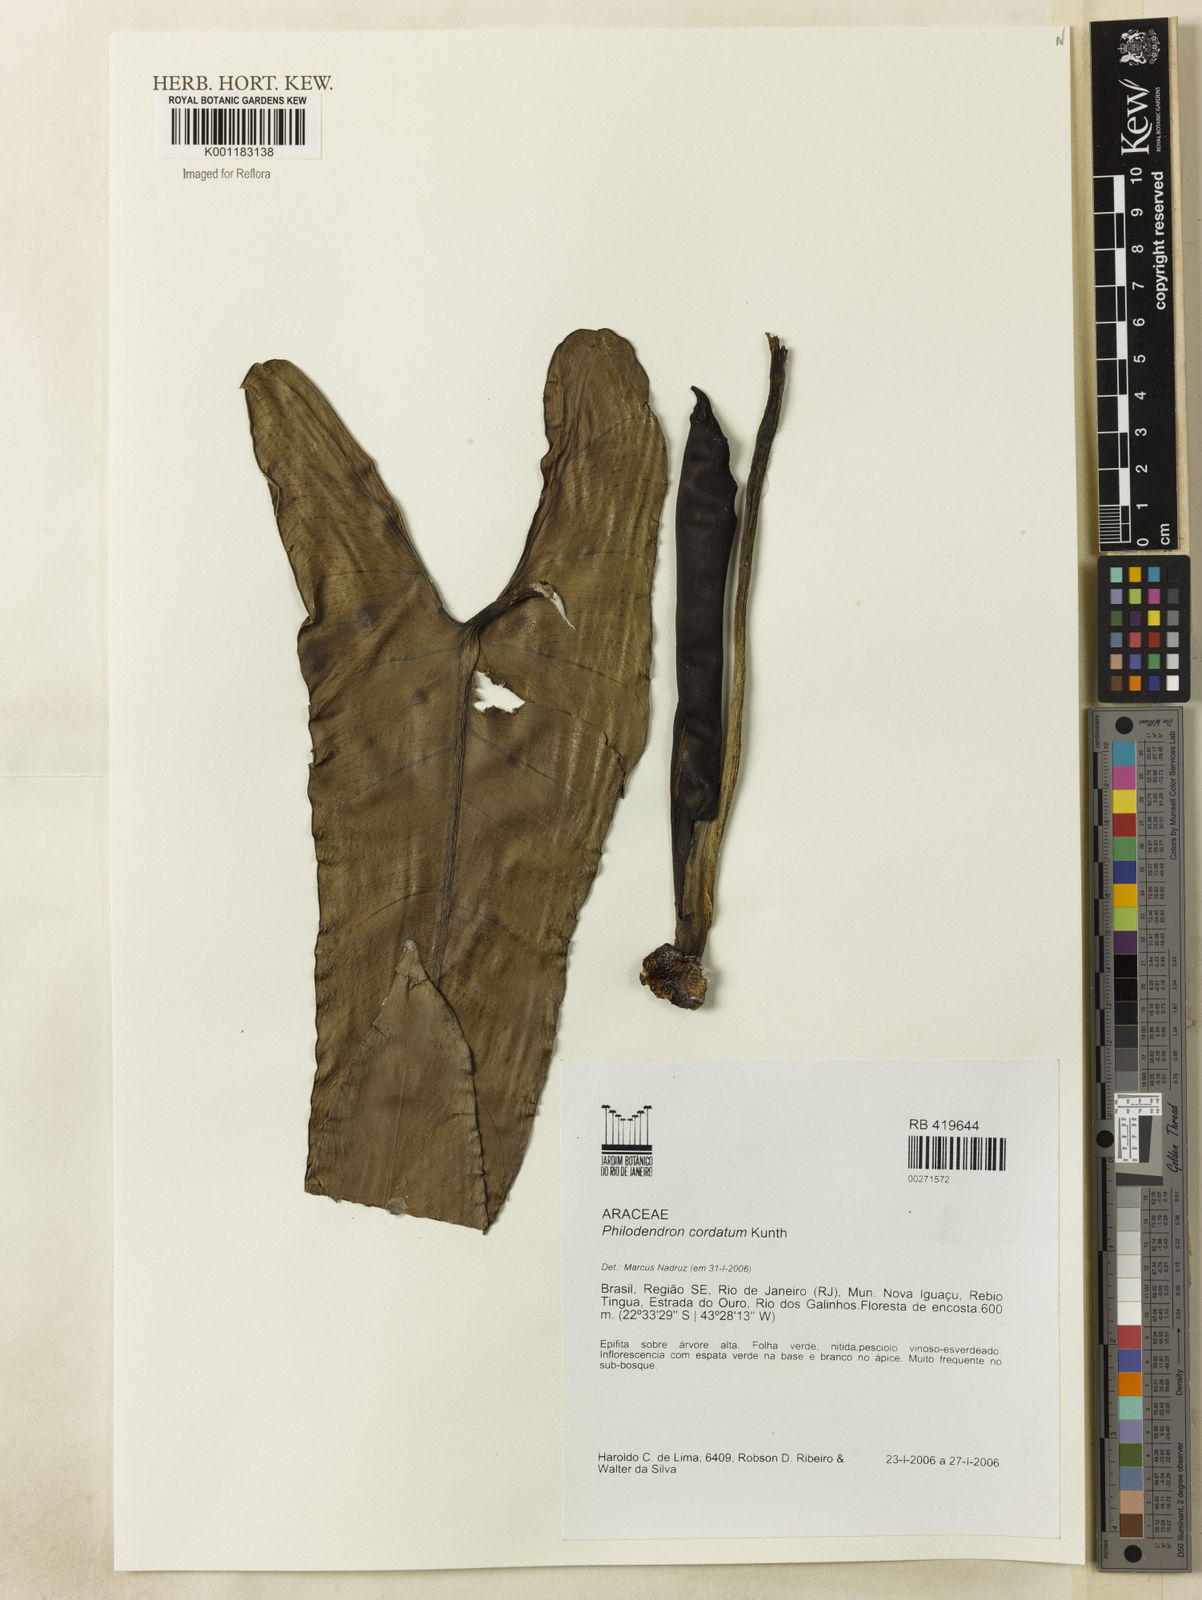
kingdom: Plantae
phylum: Tracheophyta
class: Liliopsida
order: Alismatales
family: Araceae
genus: Philodendron
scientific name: Philodendron cordatum
